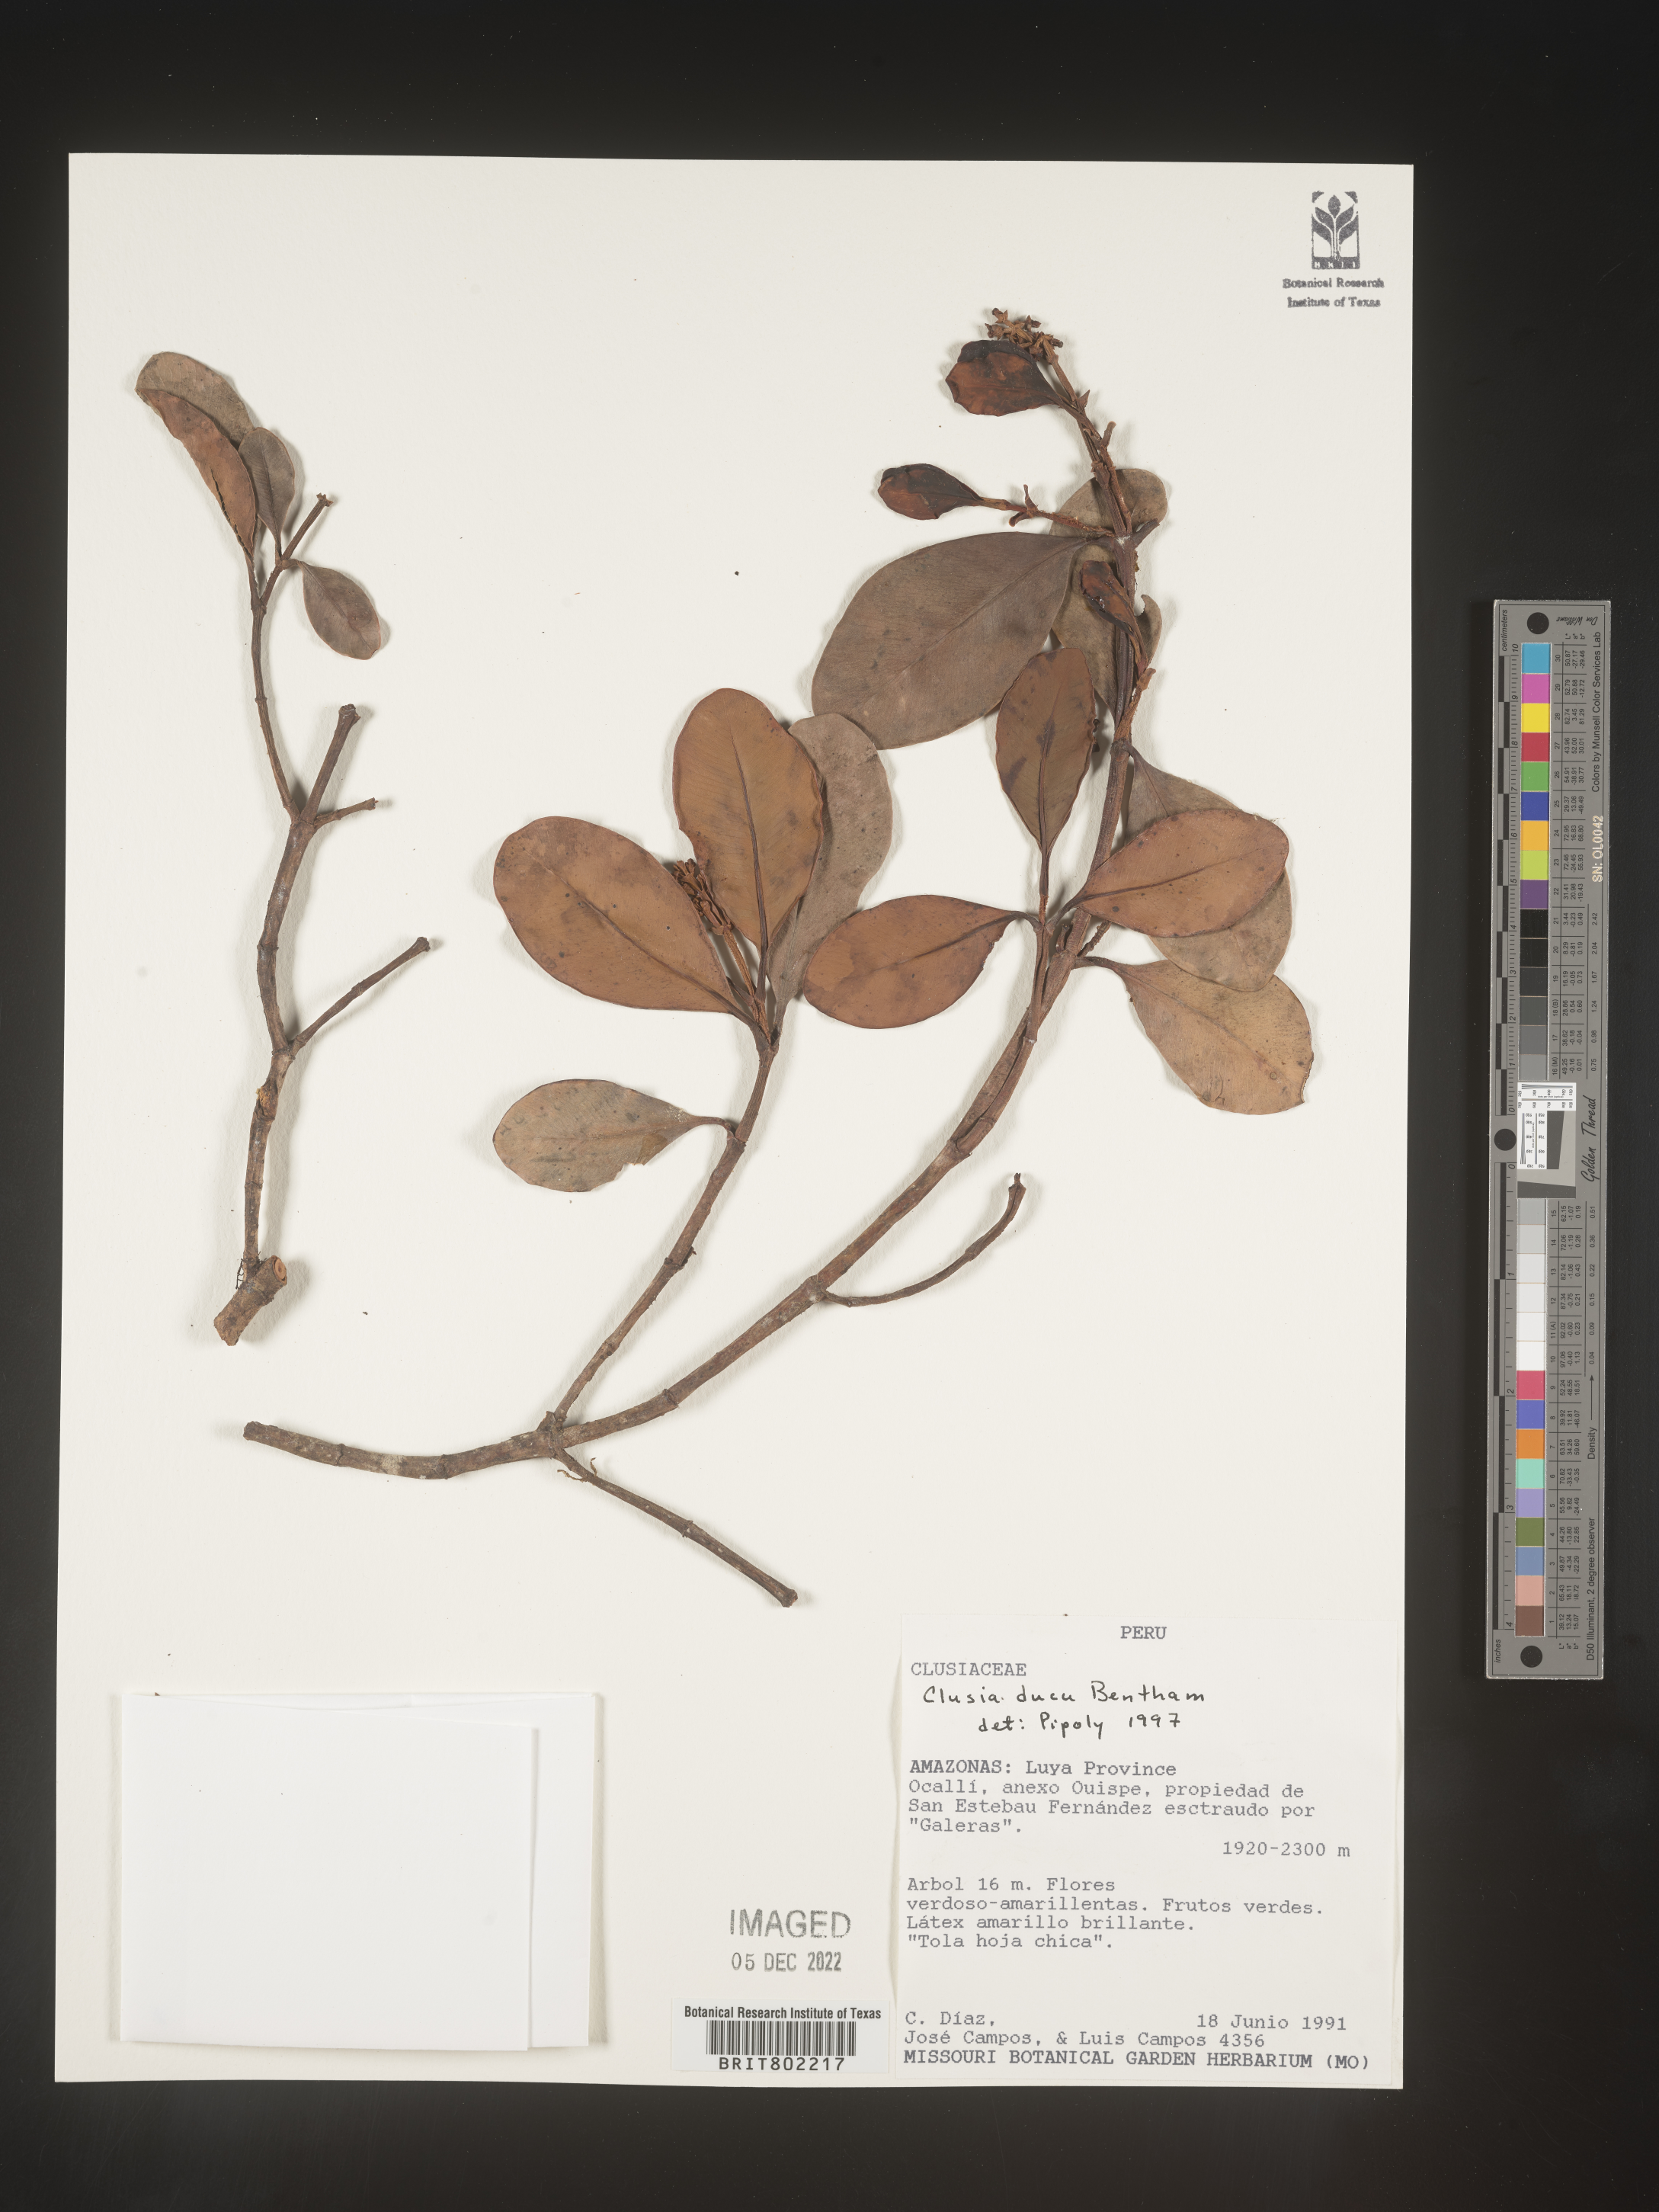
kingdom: Plantae
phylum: Tracheophyta
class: Magnoliopsida
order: Malpighiales
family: Clusiaceae
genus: Clusia
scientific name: Clusia ducu
